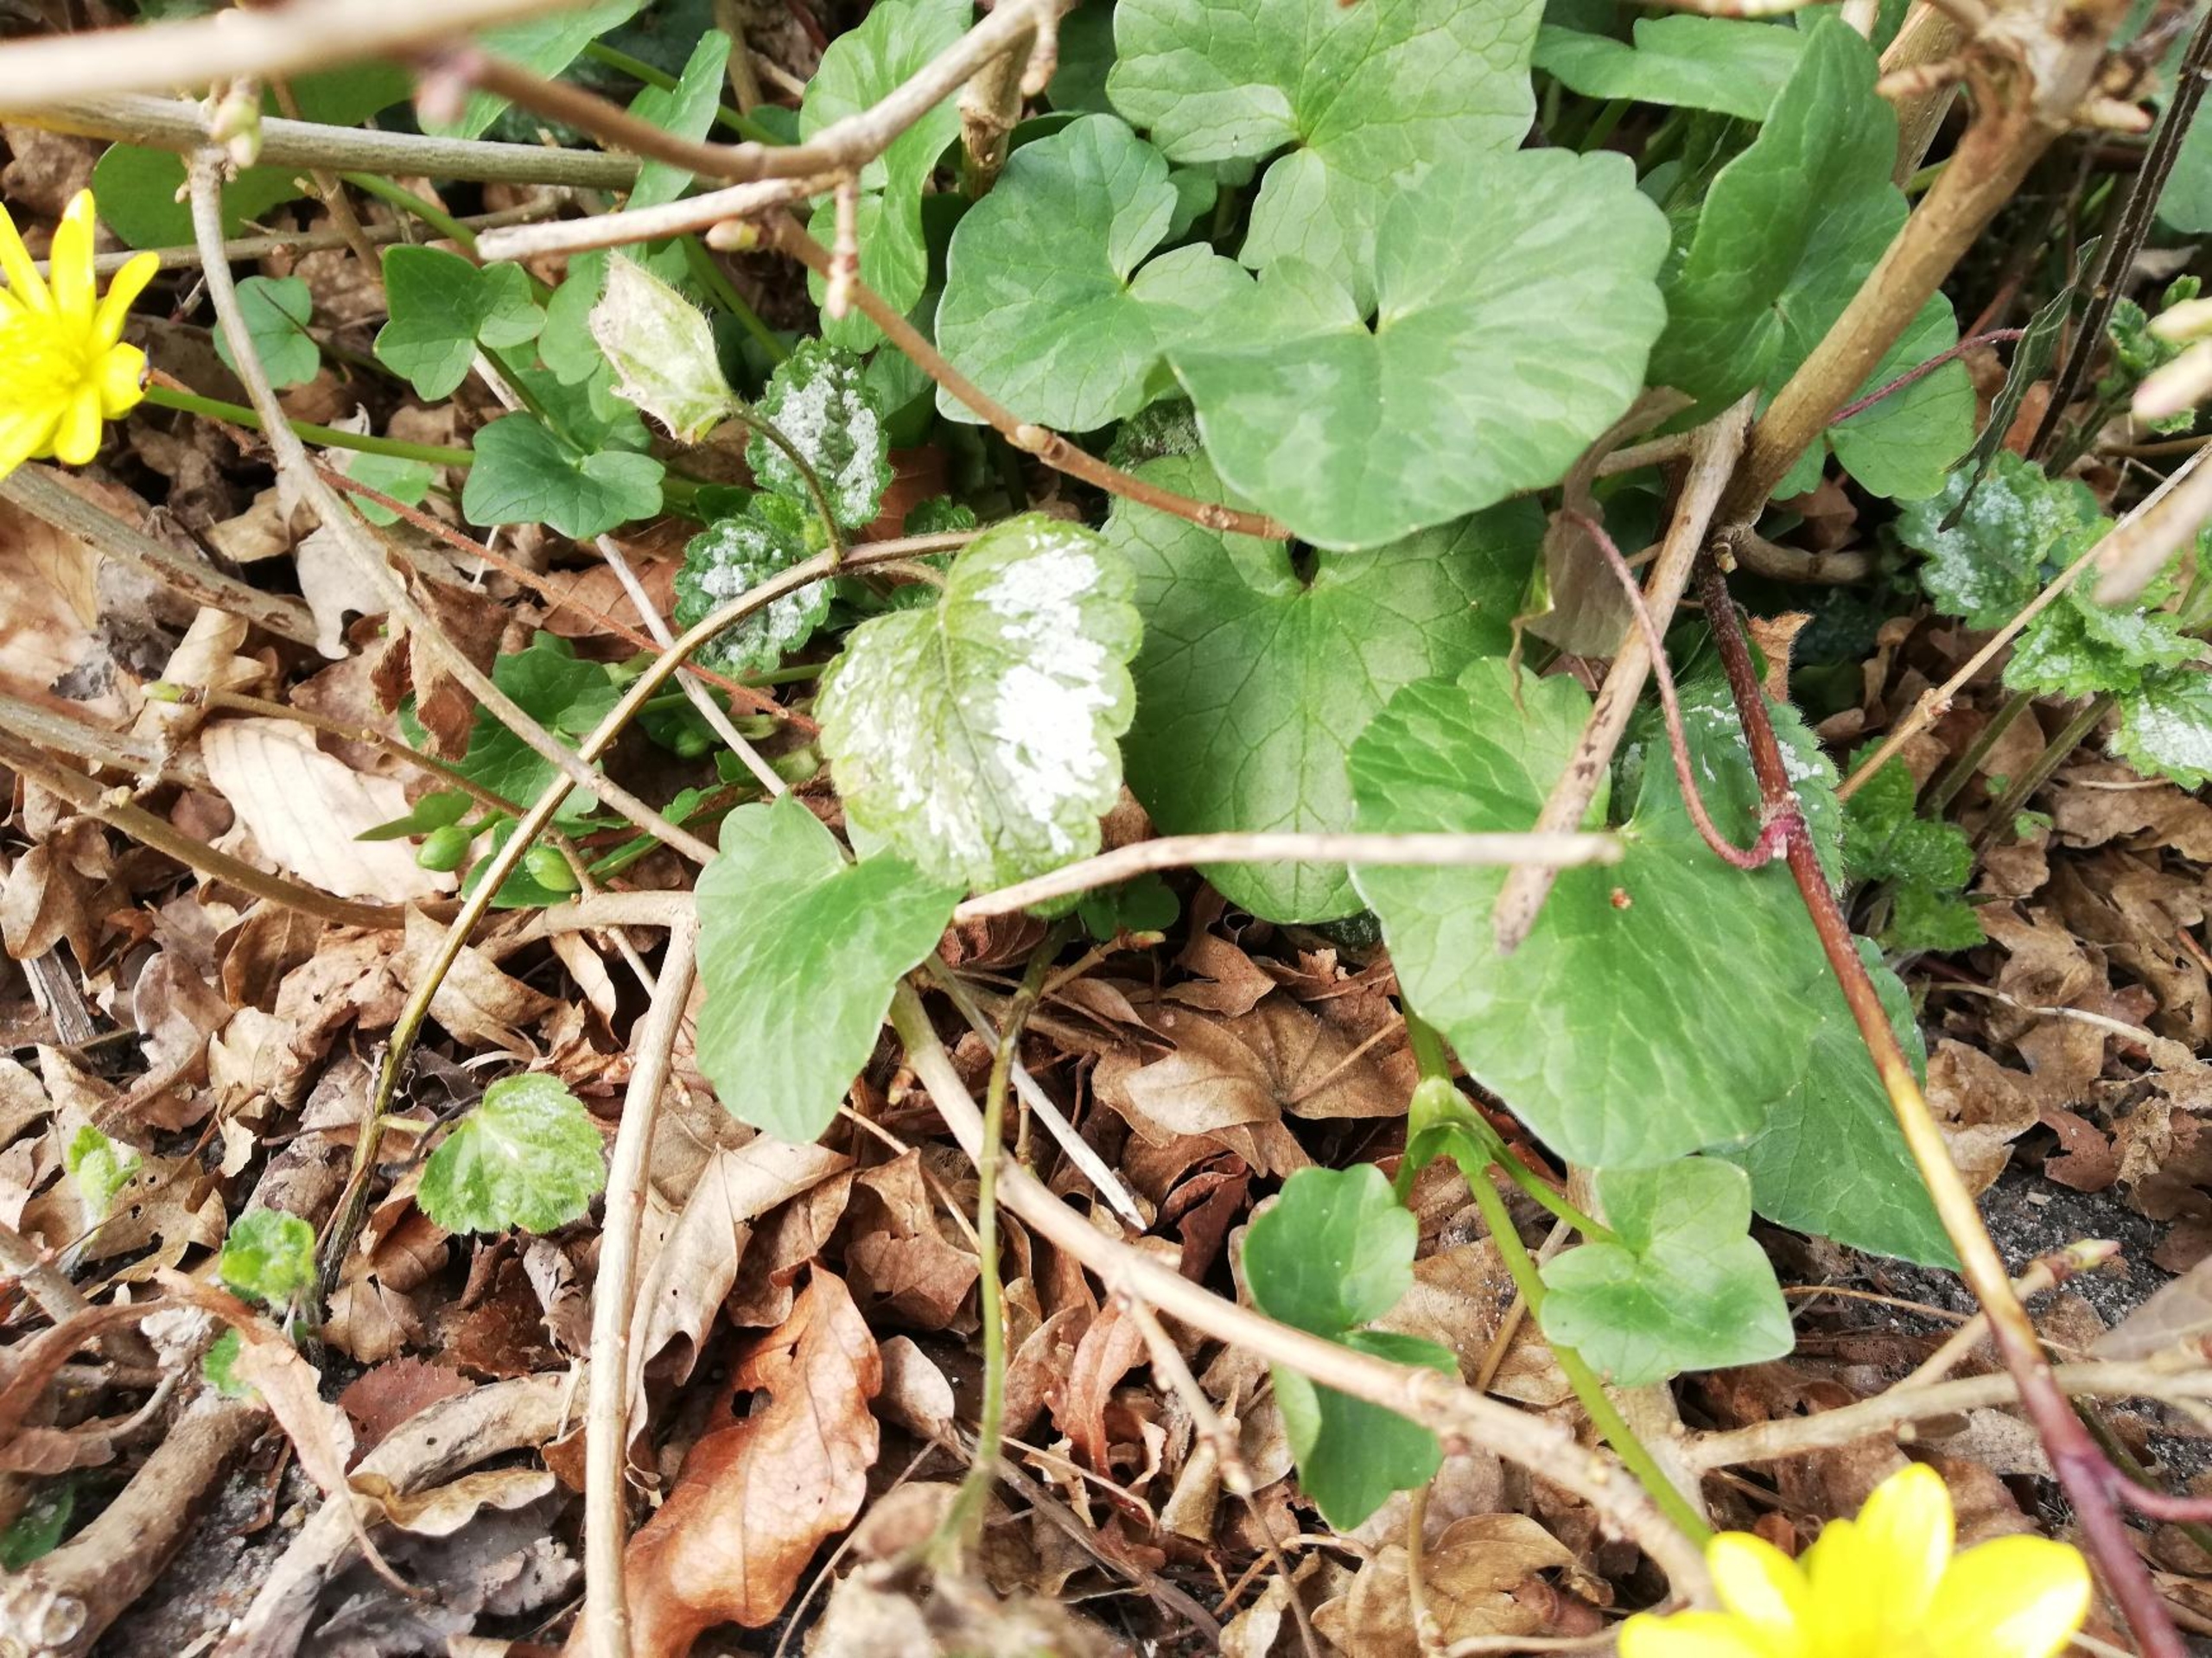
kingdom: Plantae
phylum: Tracheophyta
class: Magnoliopsida
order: Ranunculales
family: Ranunculaceae
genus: Ficaria
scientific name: Ficaria verna
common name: Vorterod
